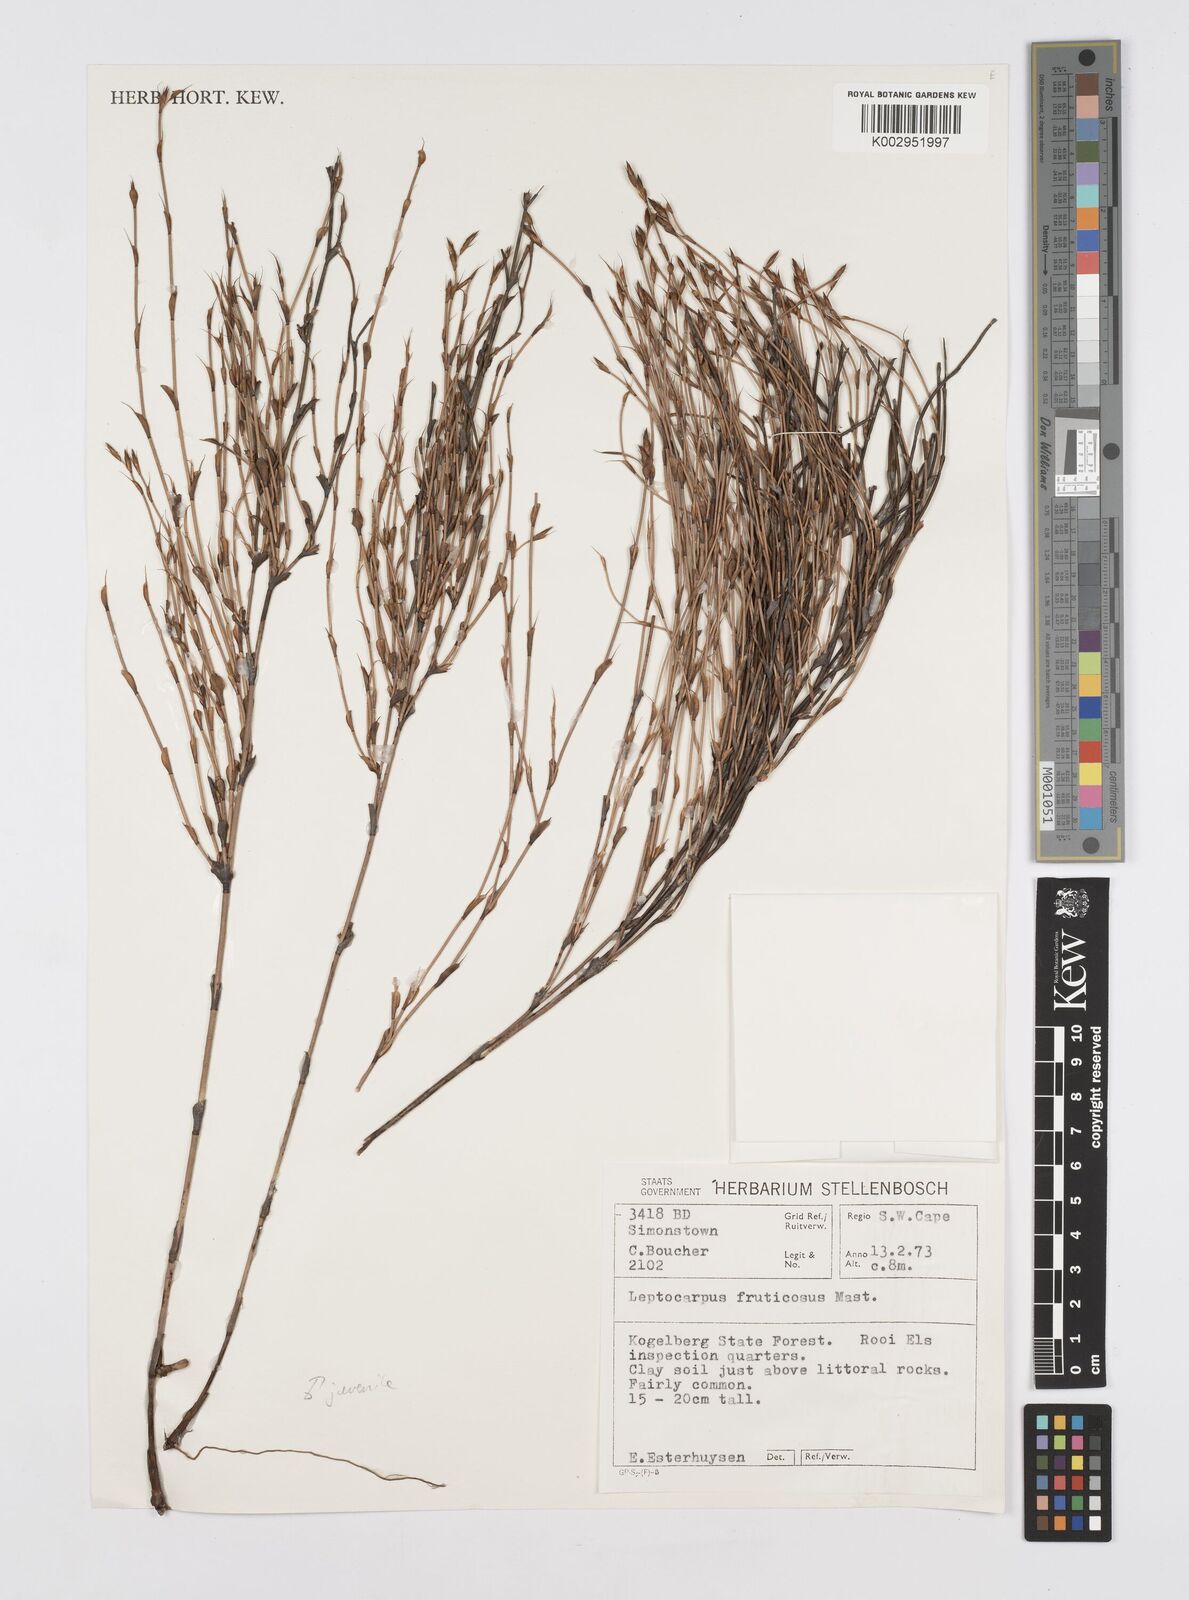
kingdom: Plantae
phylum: Tracheophyta
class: Liliopsida
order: Poales
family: Restionaceae
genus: Rhodocoma
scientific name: Rhodocoma fruticosa
